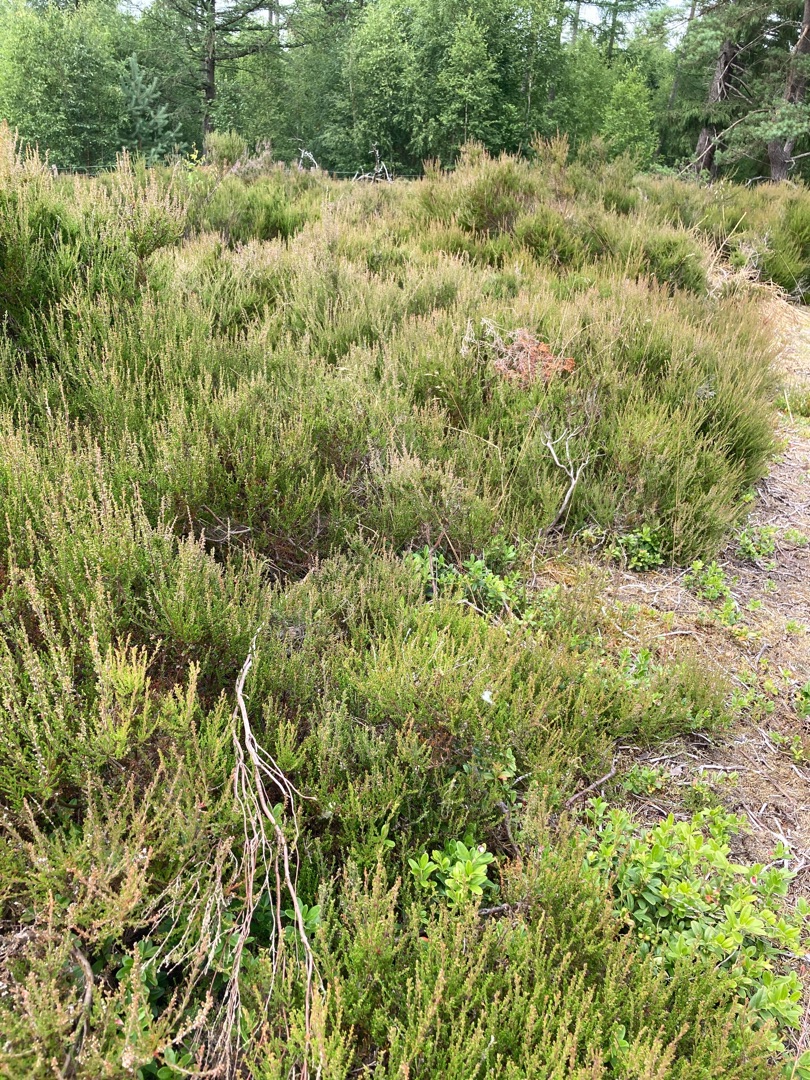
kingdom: Plantae
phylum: Tracheophyta
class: Magnoliopsida
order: Ericales
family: Ericaceae
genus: Calluna
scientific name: Calluna vulgaris
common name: Hedelyng
